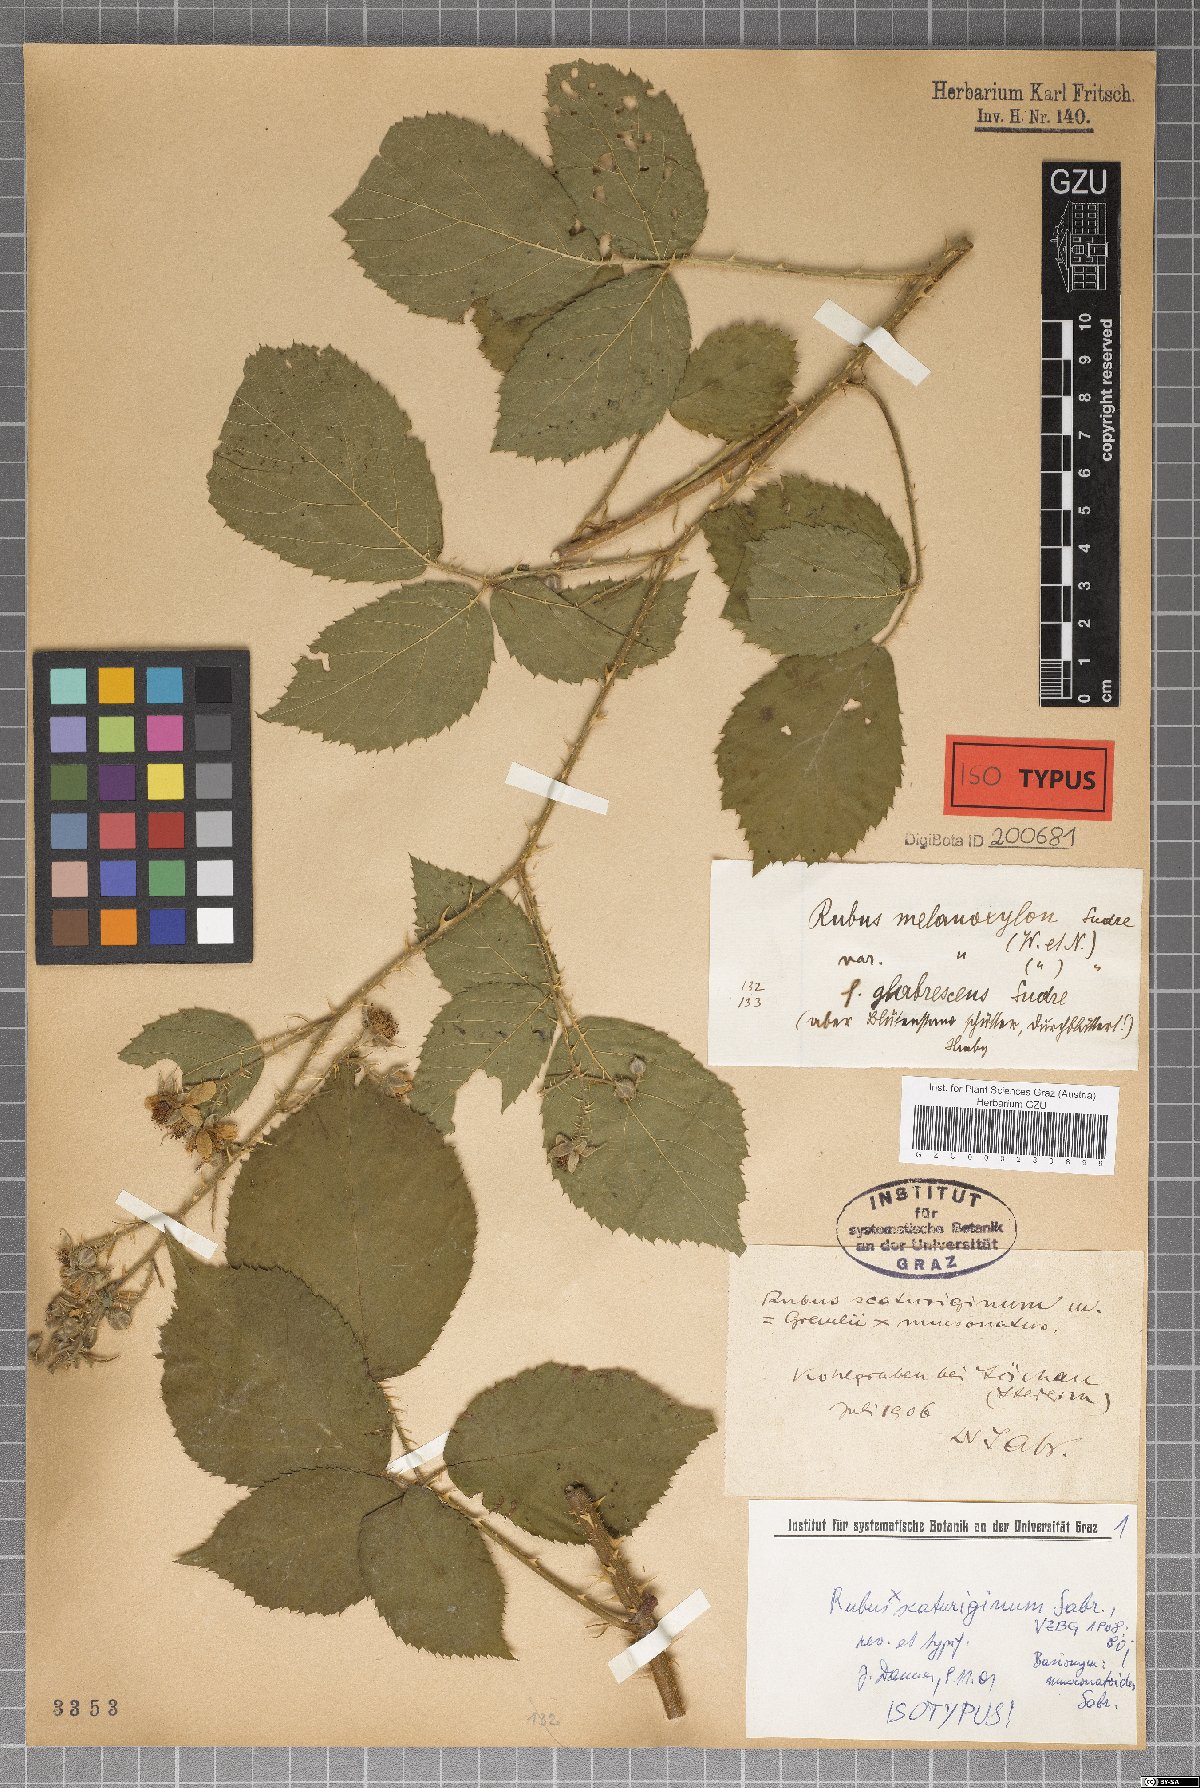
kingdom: Plantae
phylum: Tracheophyta
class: Magnoliopsida
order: Rosales
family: Rosaceae
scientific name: Rosaceae
